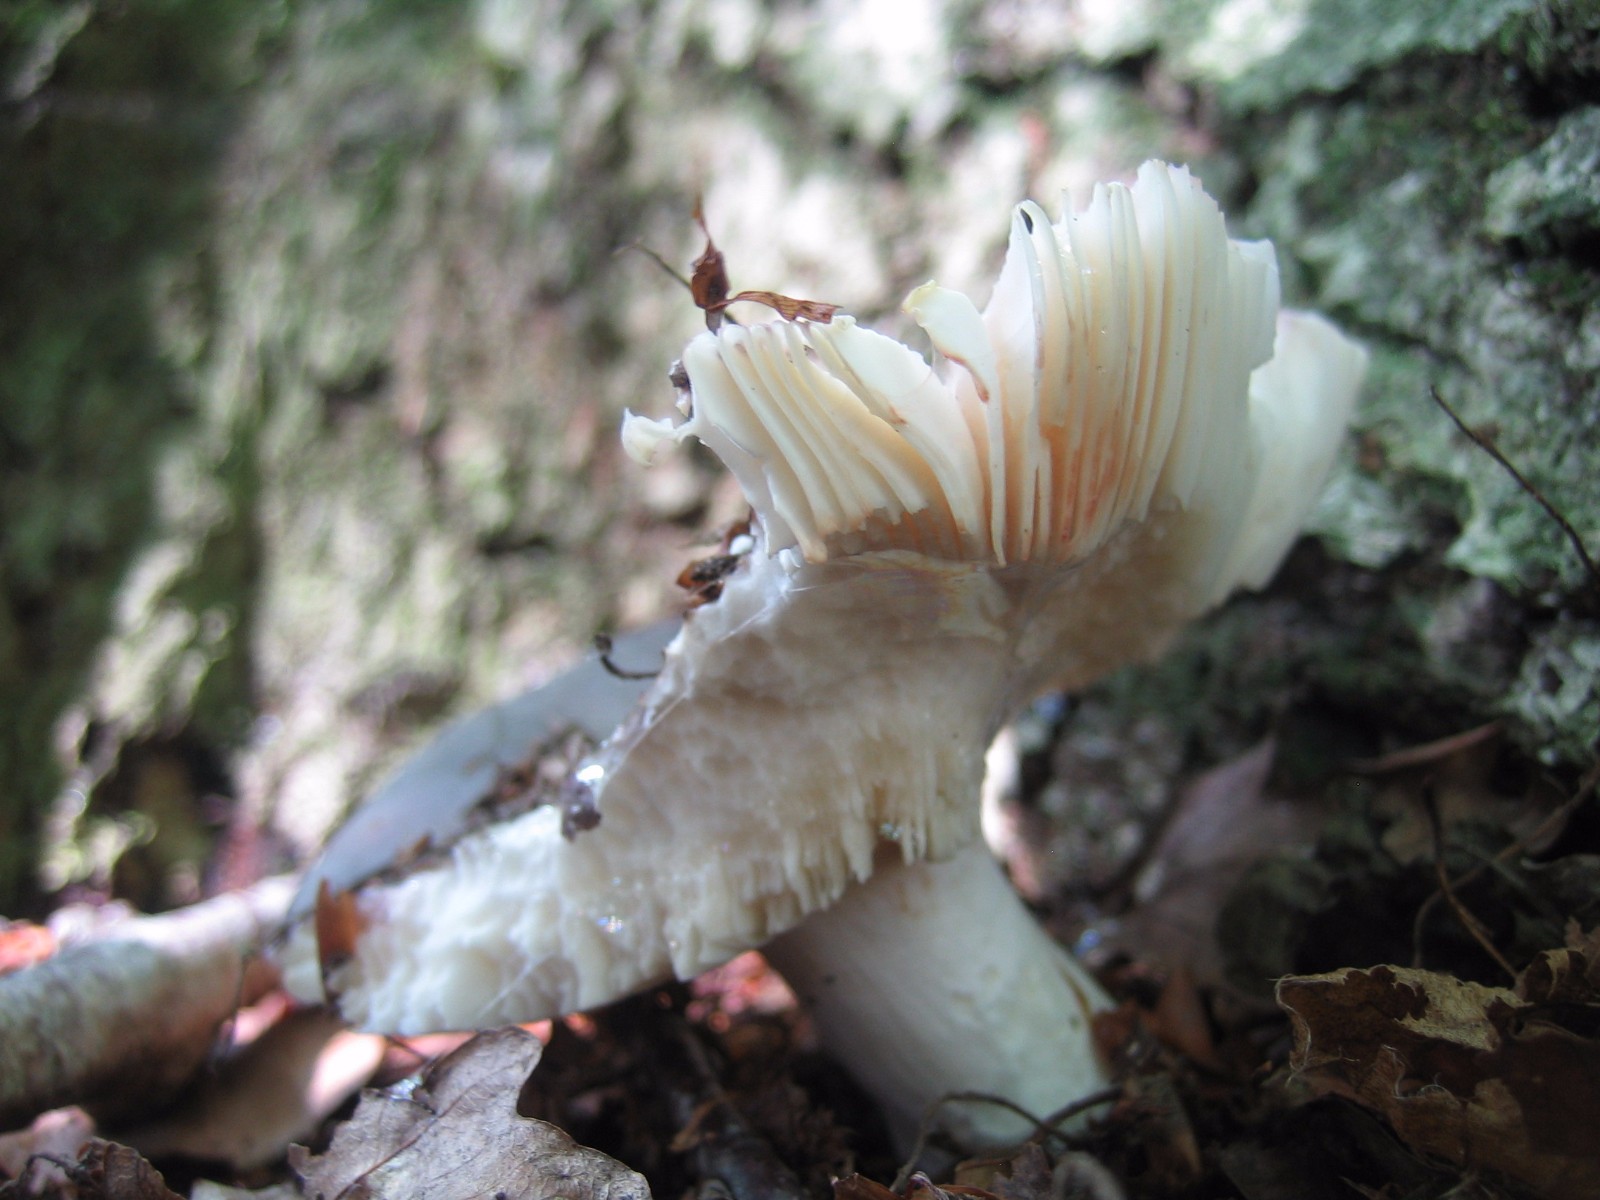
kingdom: Fungi
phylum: Basidiomycota
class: Agaricomycetes
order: Russulales
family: Russulaceae
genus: Russula
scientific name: Russula
